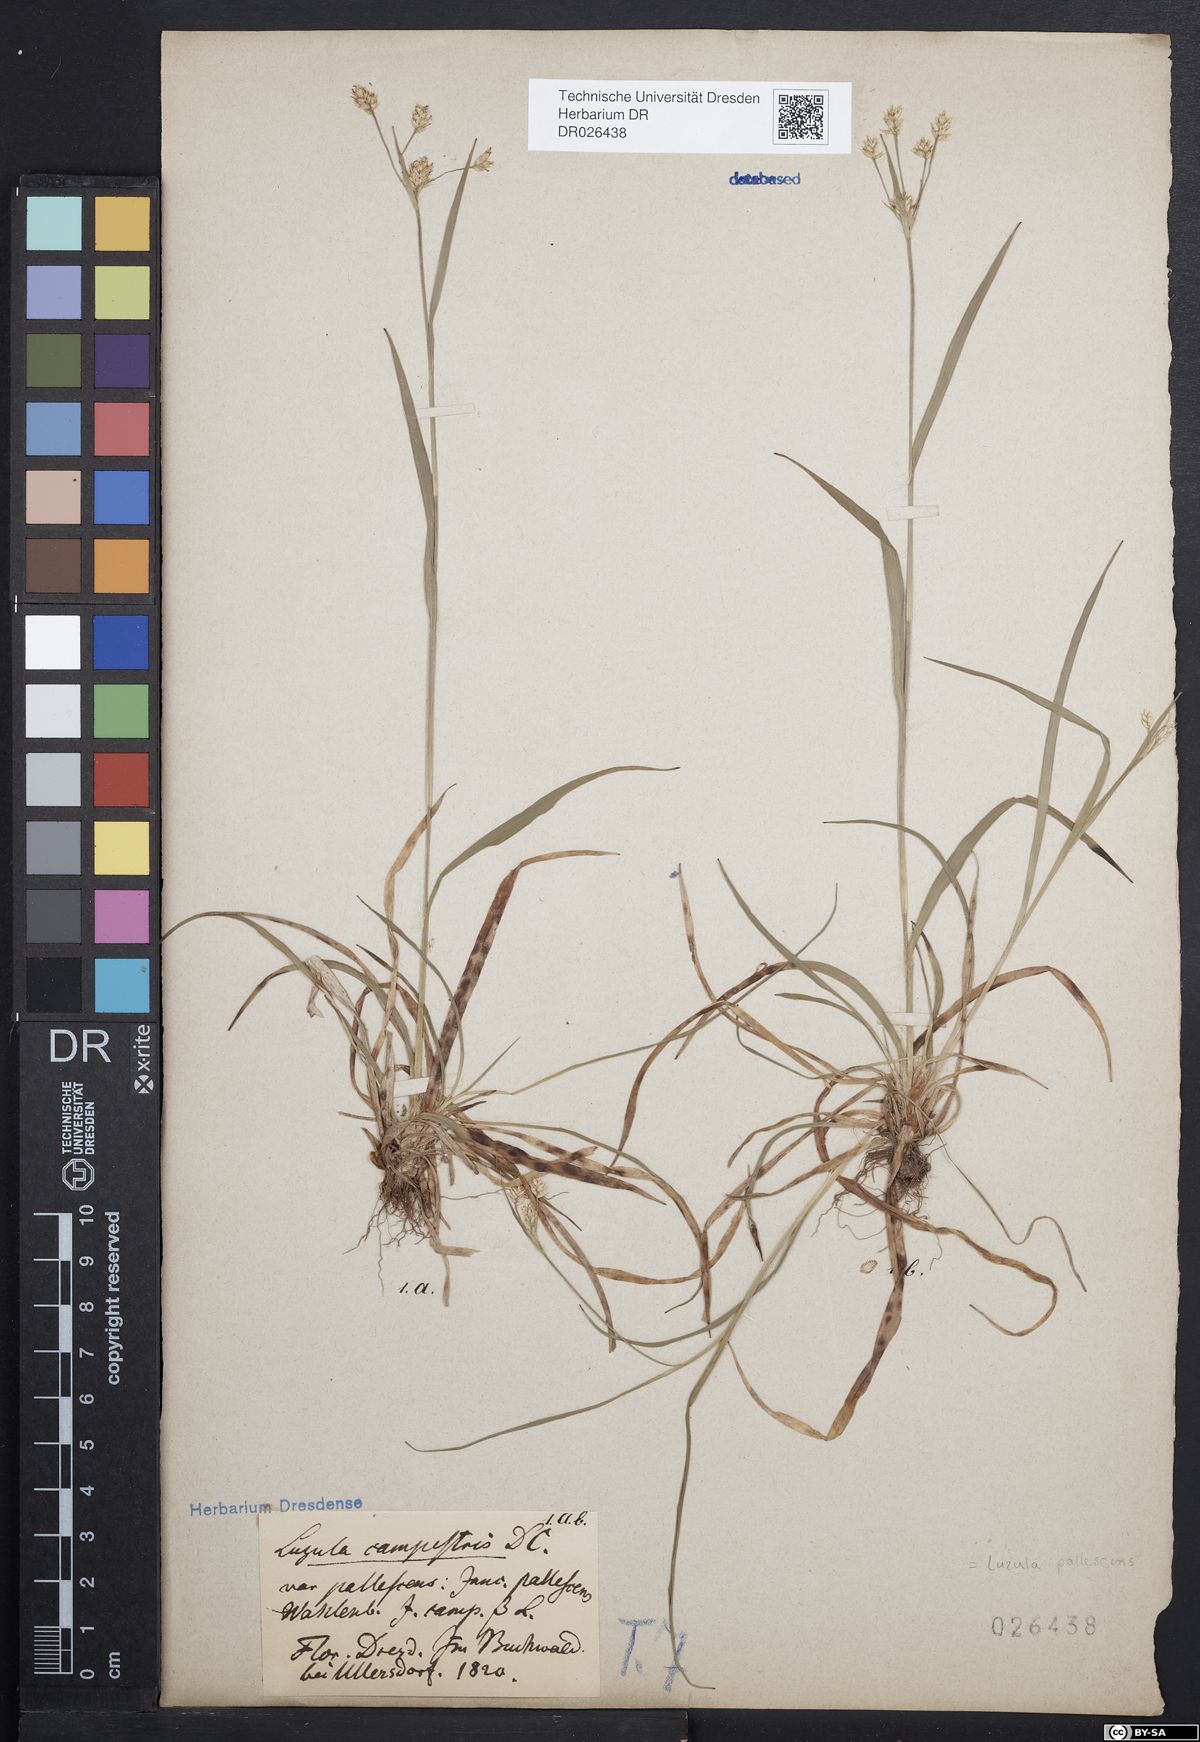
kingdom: Plantae
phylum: Tracheophyta
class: Liliopsida
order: Poales
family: Juncaceae
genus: Luzula
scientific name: Luzula pallescens
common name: Fen wood-rush
